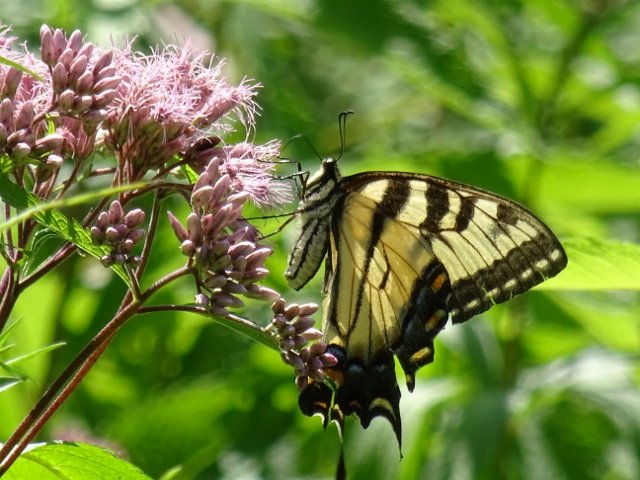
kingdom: Animalia
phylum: Arthropoda
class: Insecta
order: Lepidoptera
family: Papilionidae
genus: Pterourus
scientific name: Pterourus glaucus
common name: Eastern Tiger Swallowtail
